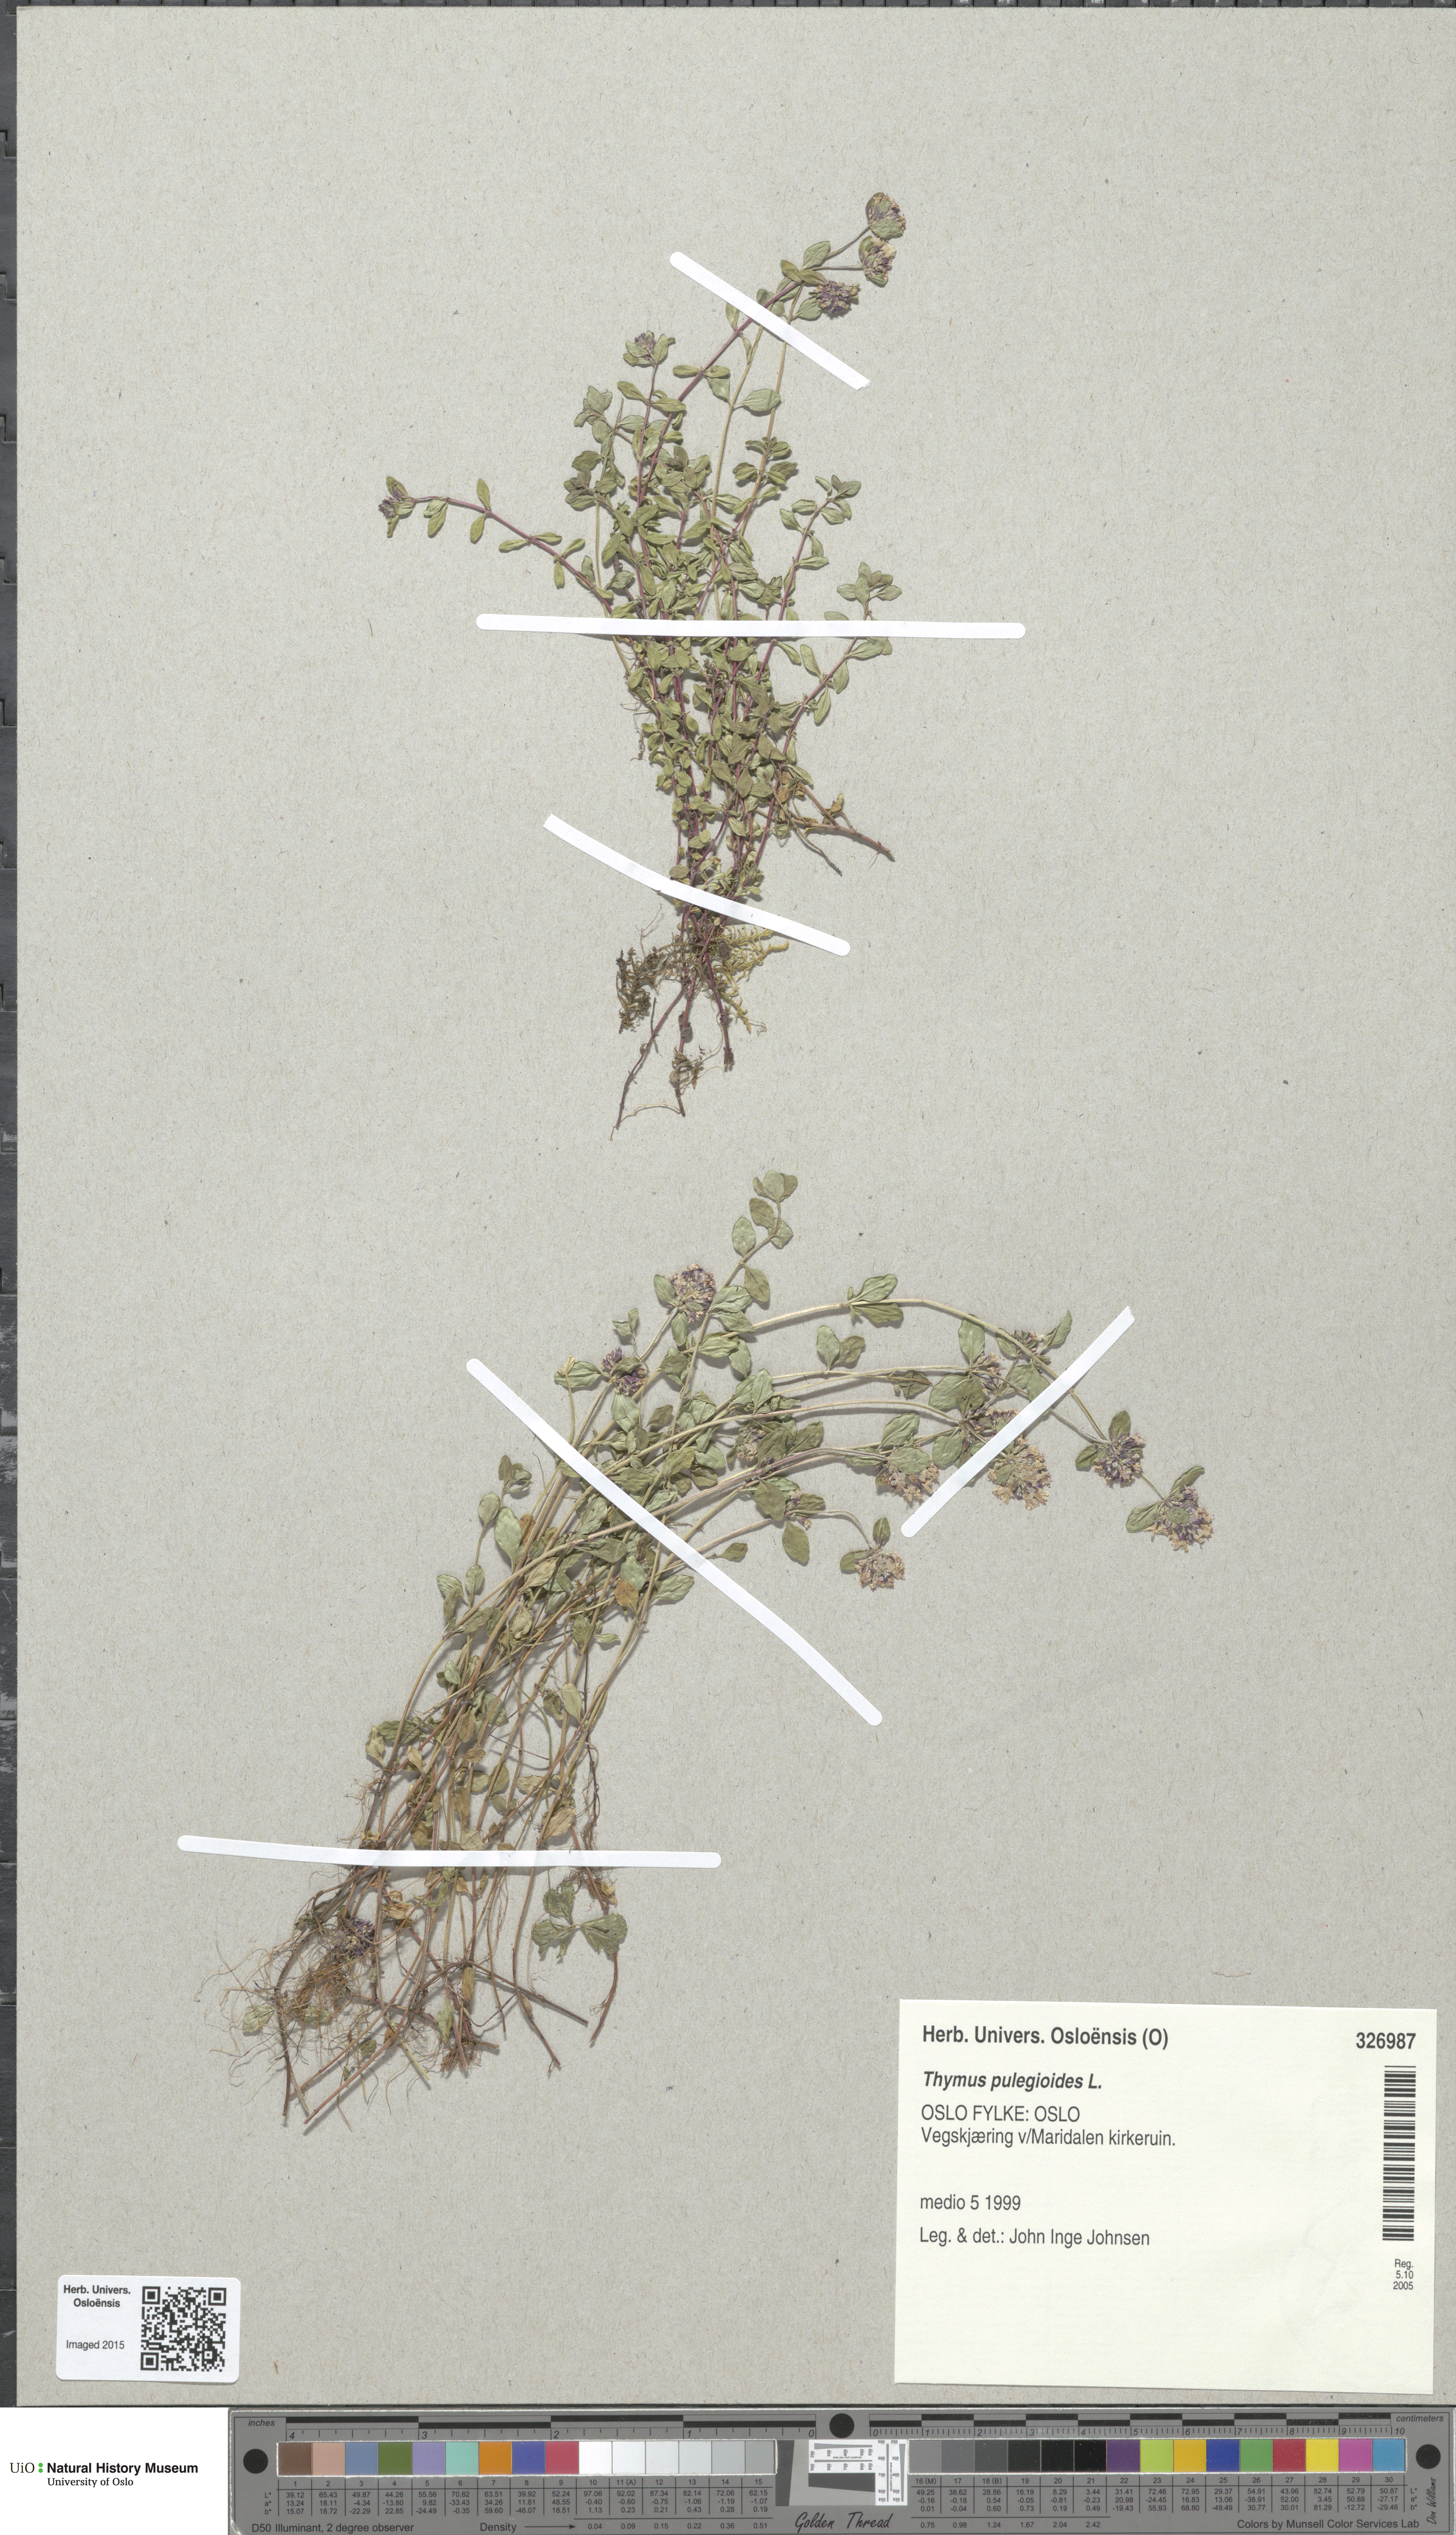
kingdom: Plantae
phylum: Tracheophyta
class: Magnoliopsida
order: Lamiales
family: Lamiaceae
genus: Thymus
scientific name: Thymus pulegioides
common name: Large thyme
